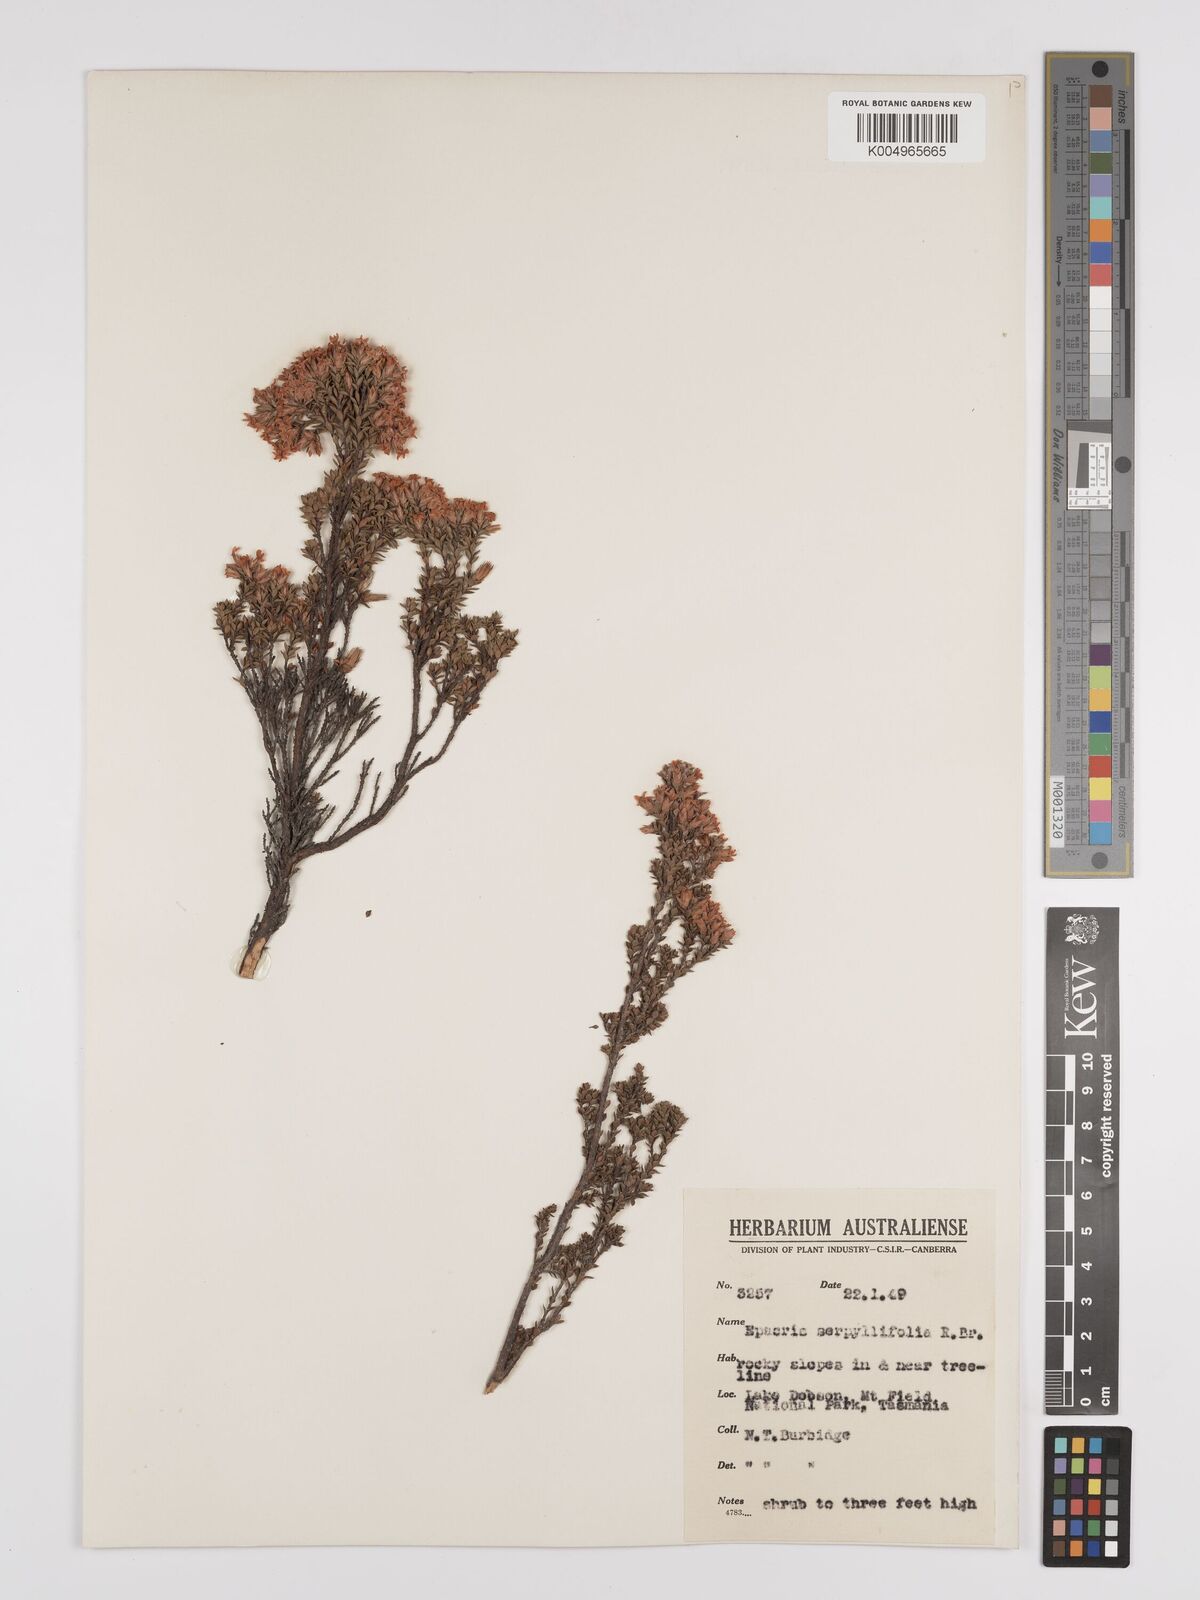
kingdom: Plantae
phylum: Tracheophyta
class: Magnoliopsida
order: Ericales
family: Ericaceae
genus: Epacris
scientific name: Epacris serpyllifolia
